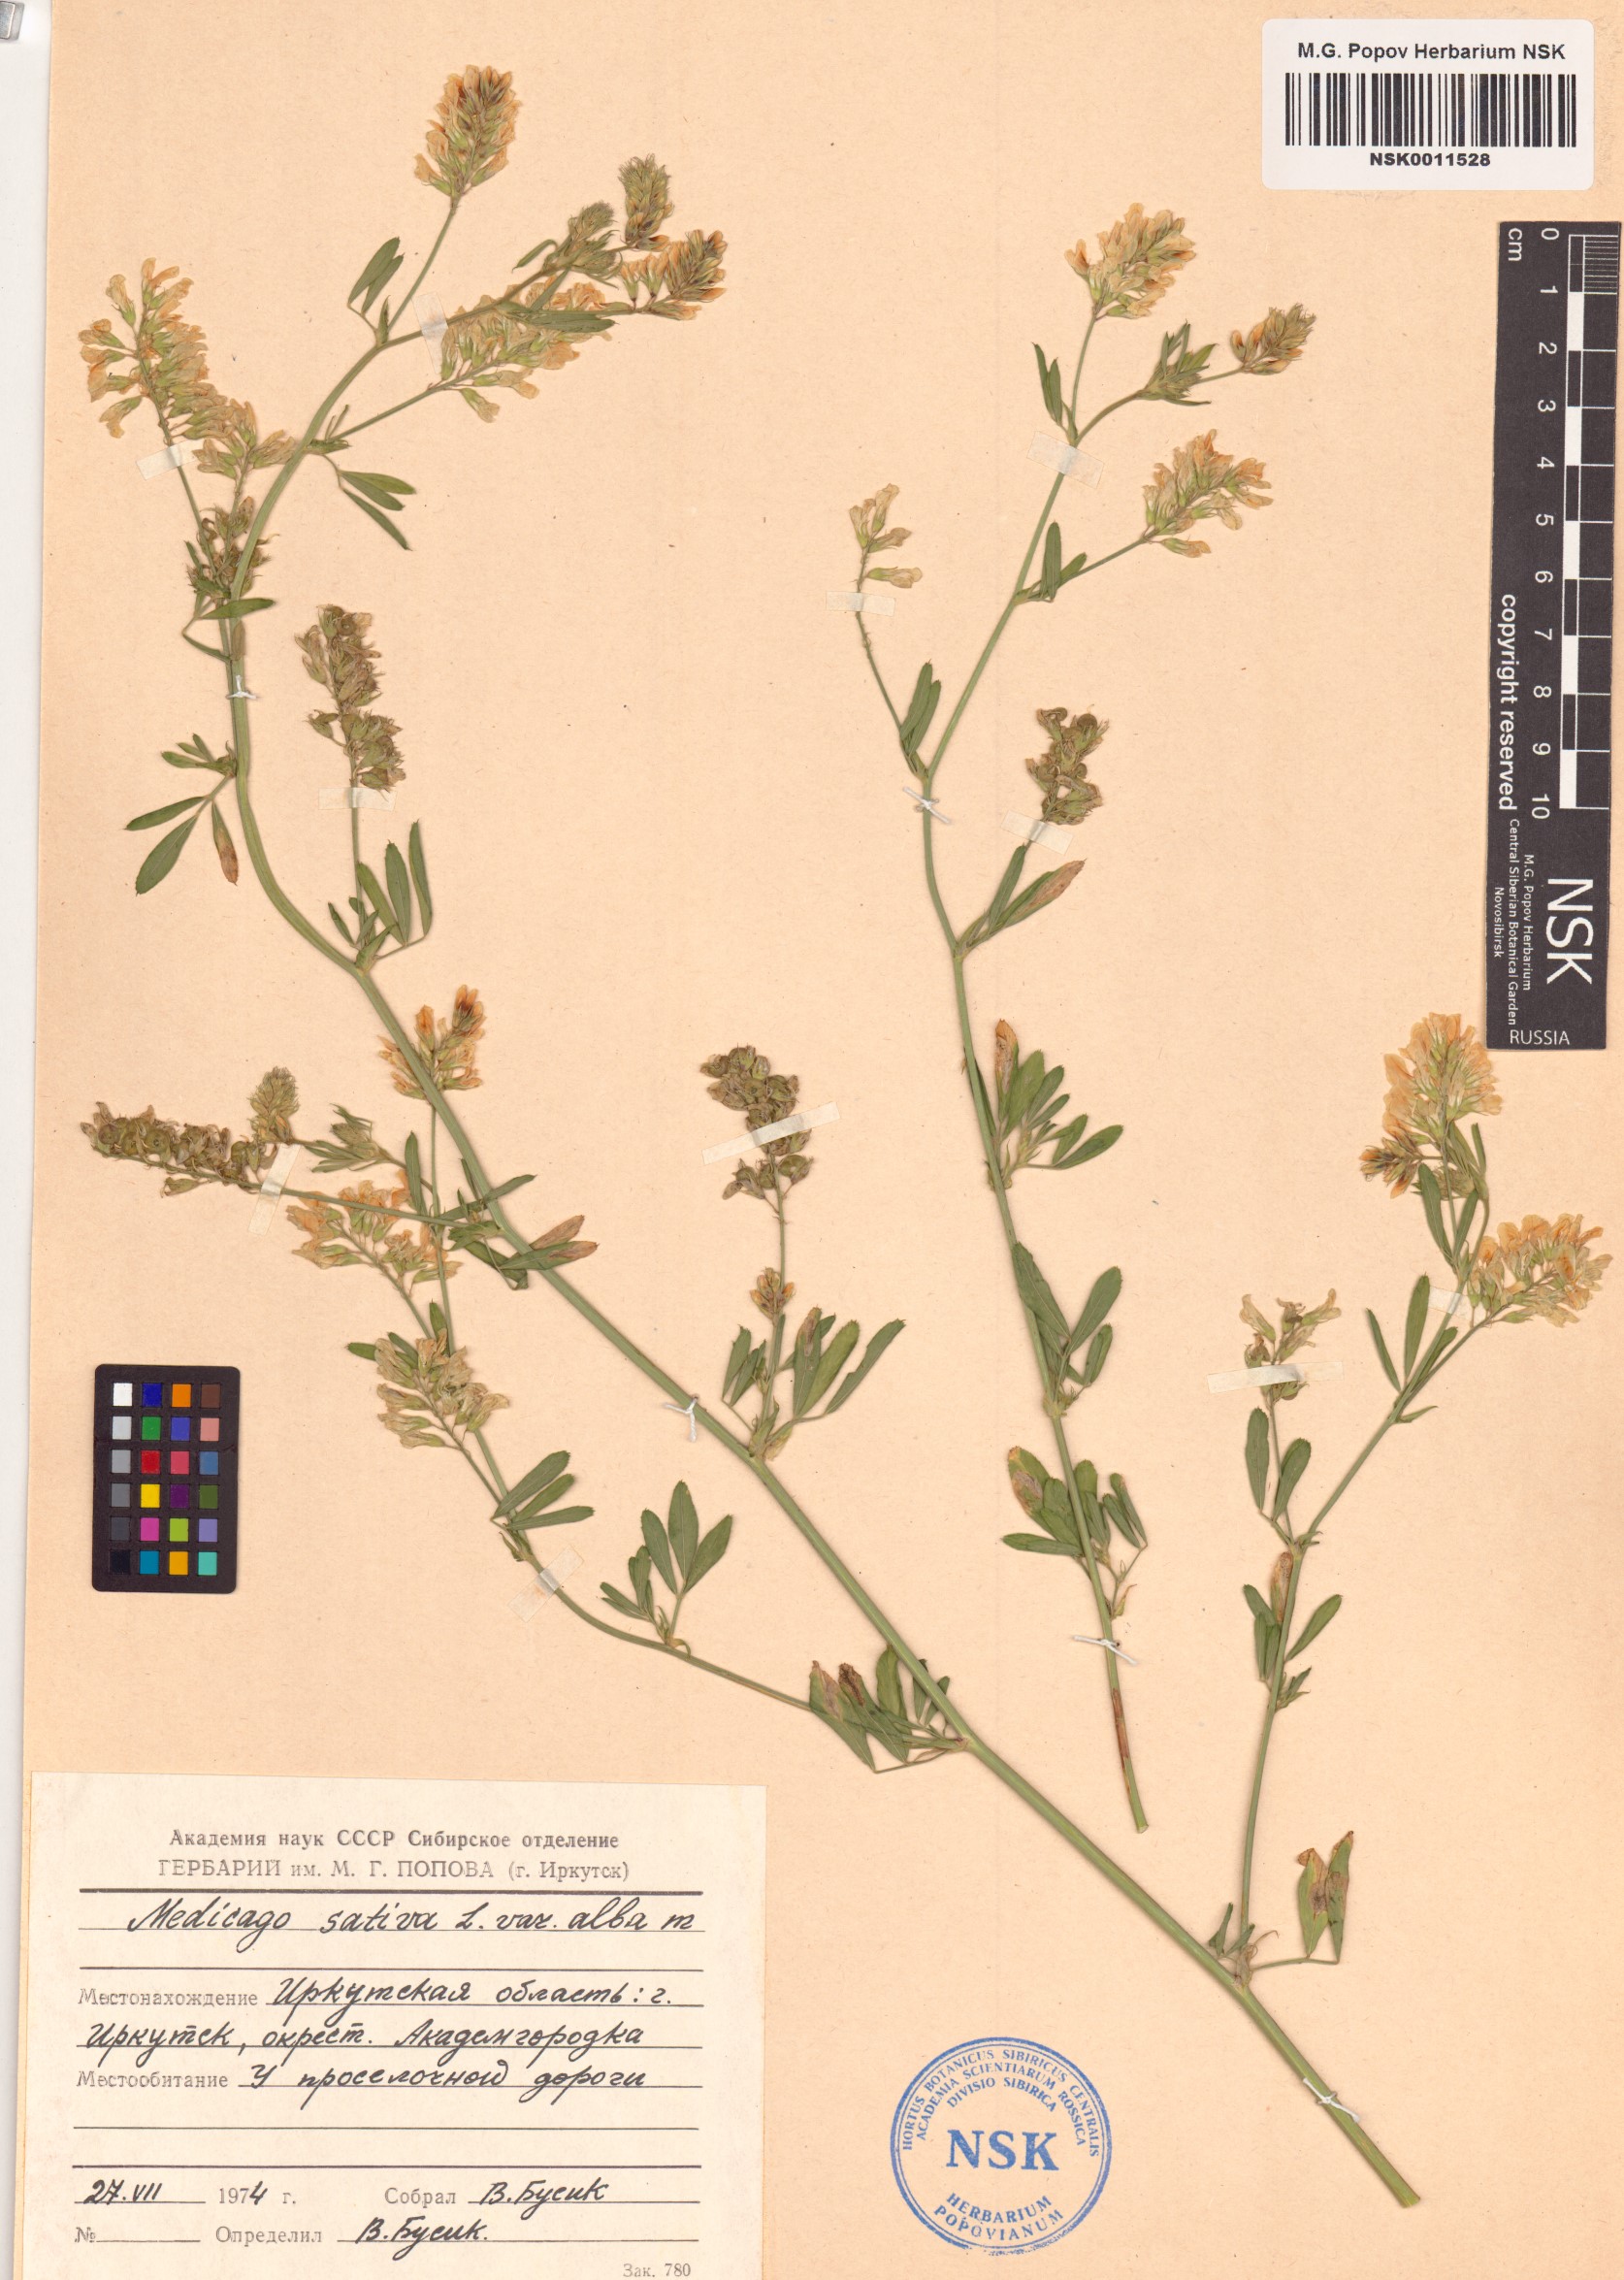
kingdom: Plantae
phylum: Tracheophyta
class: Magnoliopsida
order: Fabales
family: Fabaceae
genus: Medicago
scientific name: Medicago sativa
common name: Alfalfa
